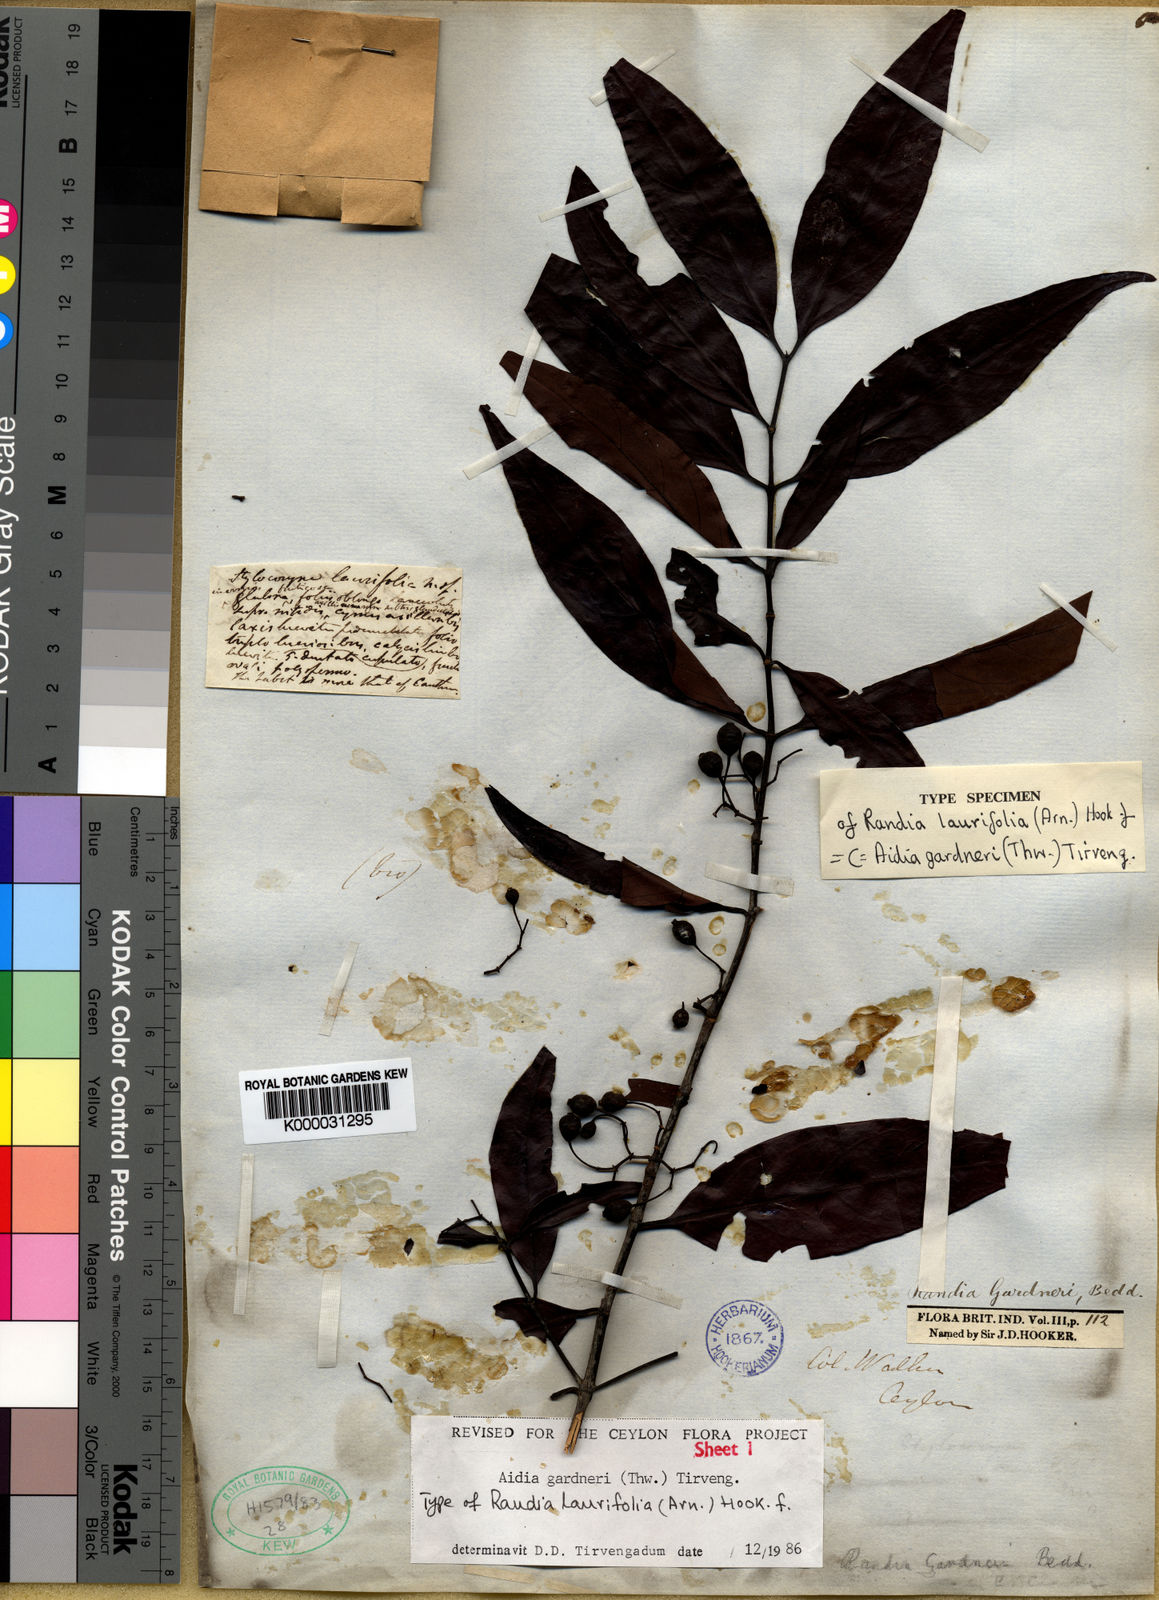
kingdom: Plantae
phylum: Tracheophyta
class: Magnoliopsida
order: Gentianales
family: Rubiaceae
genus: Aidia
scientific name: Aidia gardneri
